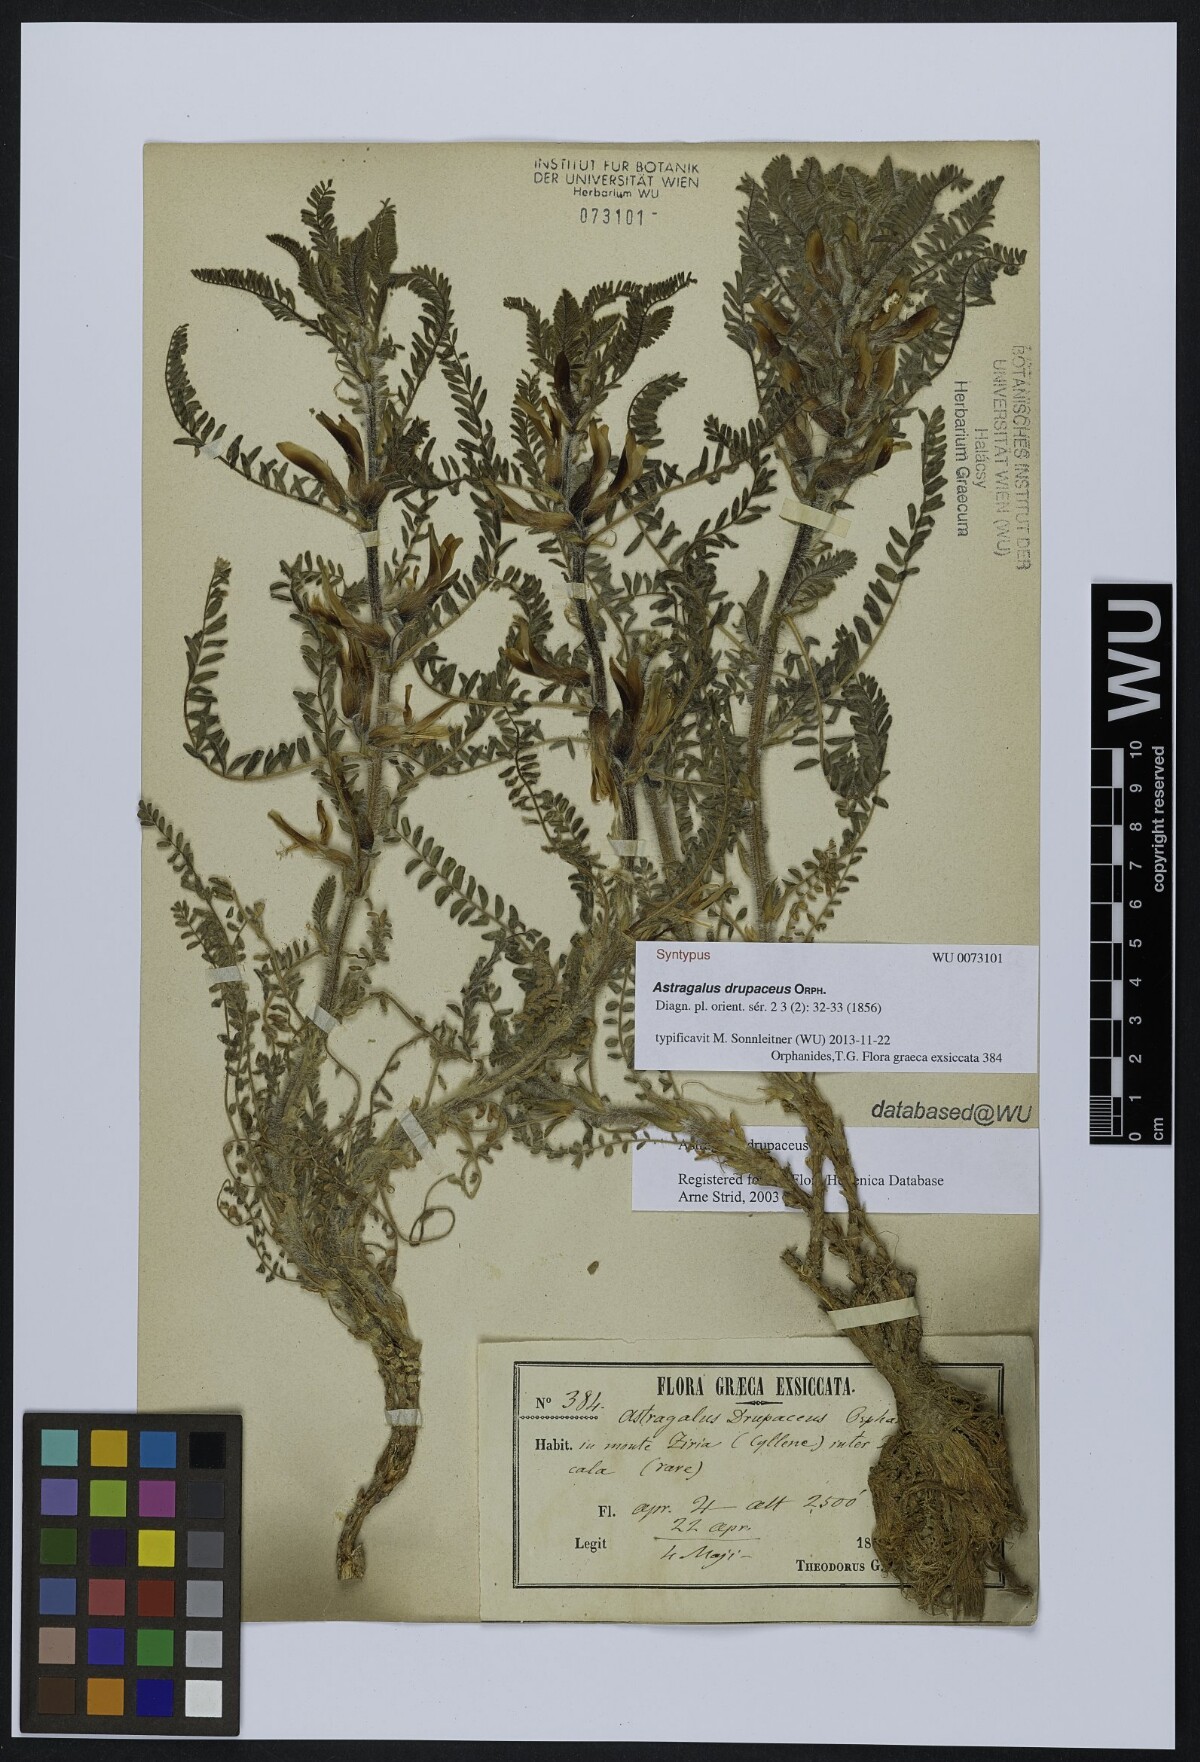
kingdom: Plantae
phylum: Tracheophyta
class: Magnoliopsida
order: Fabales
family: Fabaceae
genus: Astragalus
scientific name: Astragalus drupaceus
